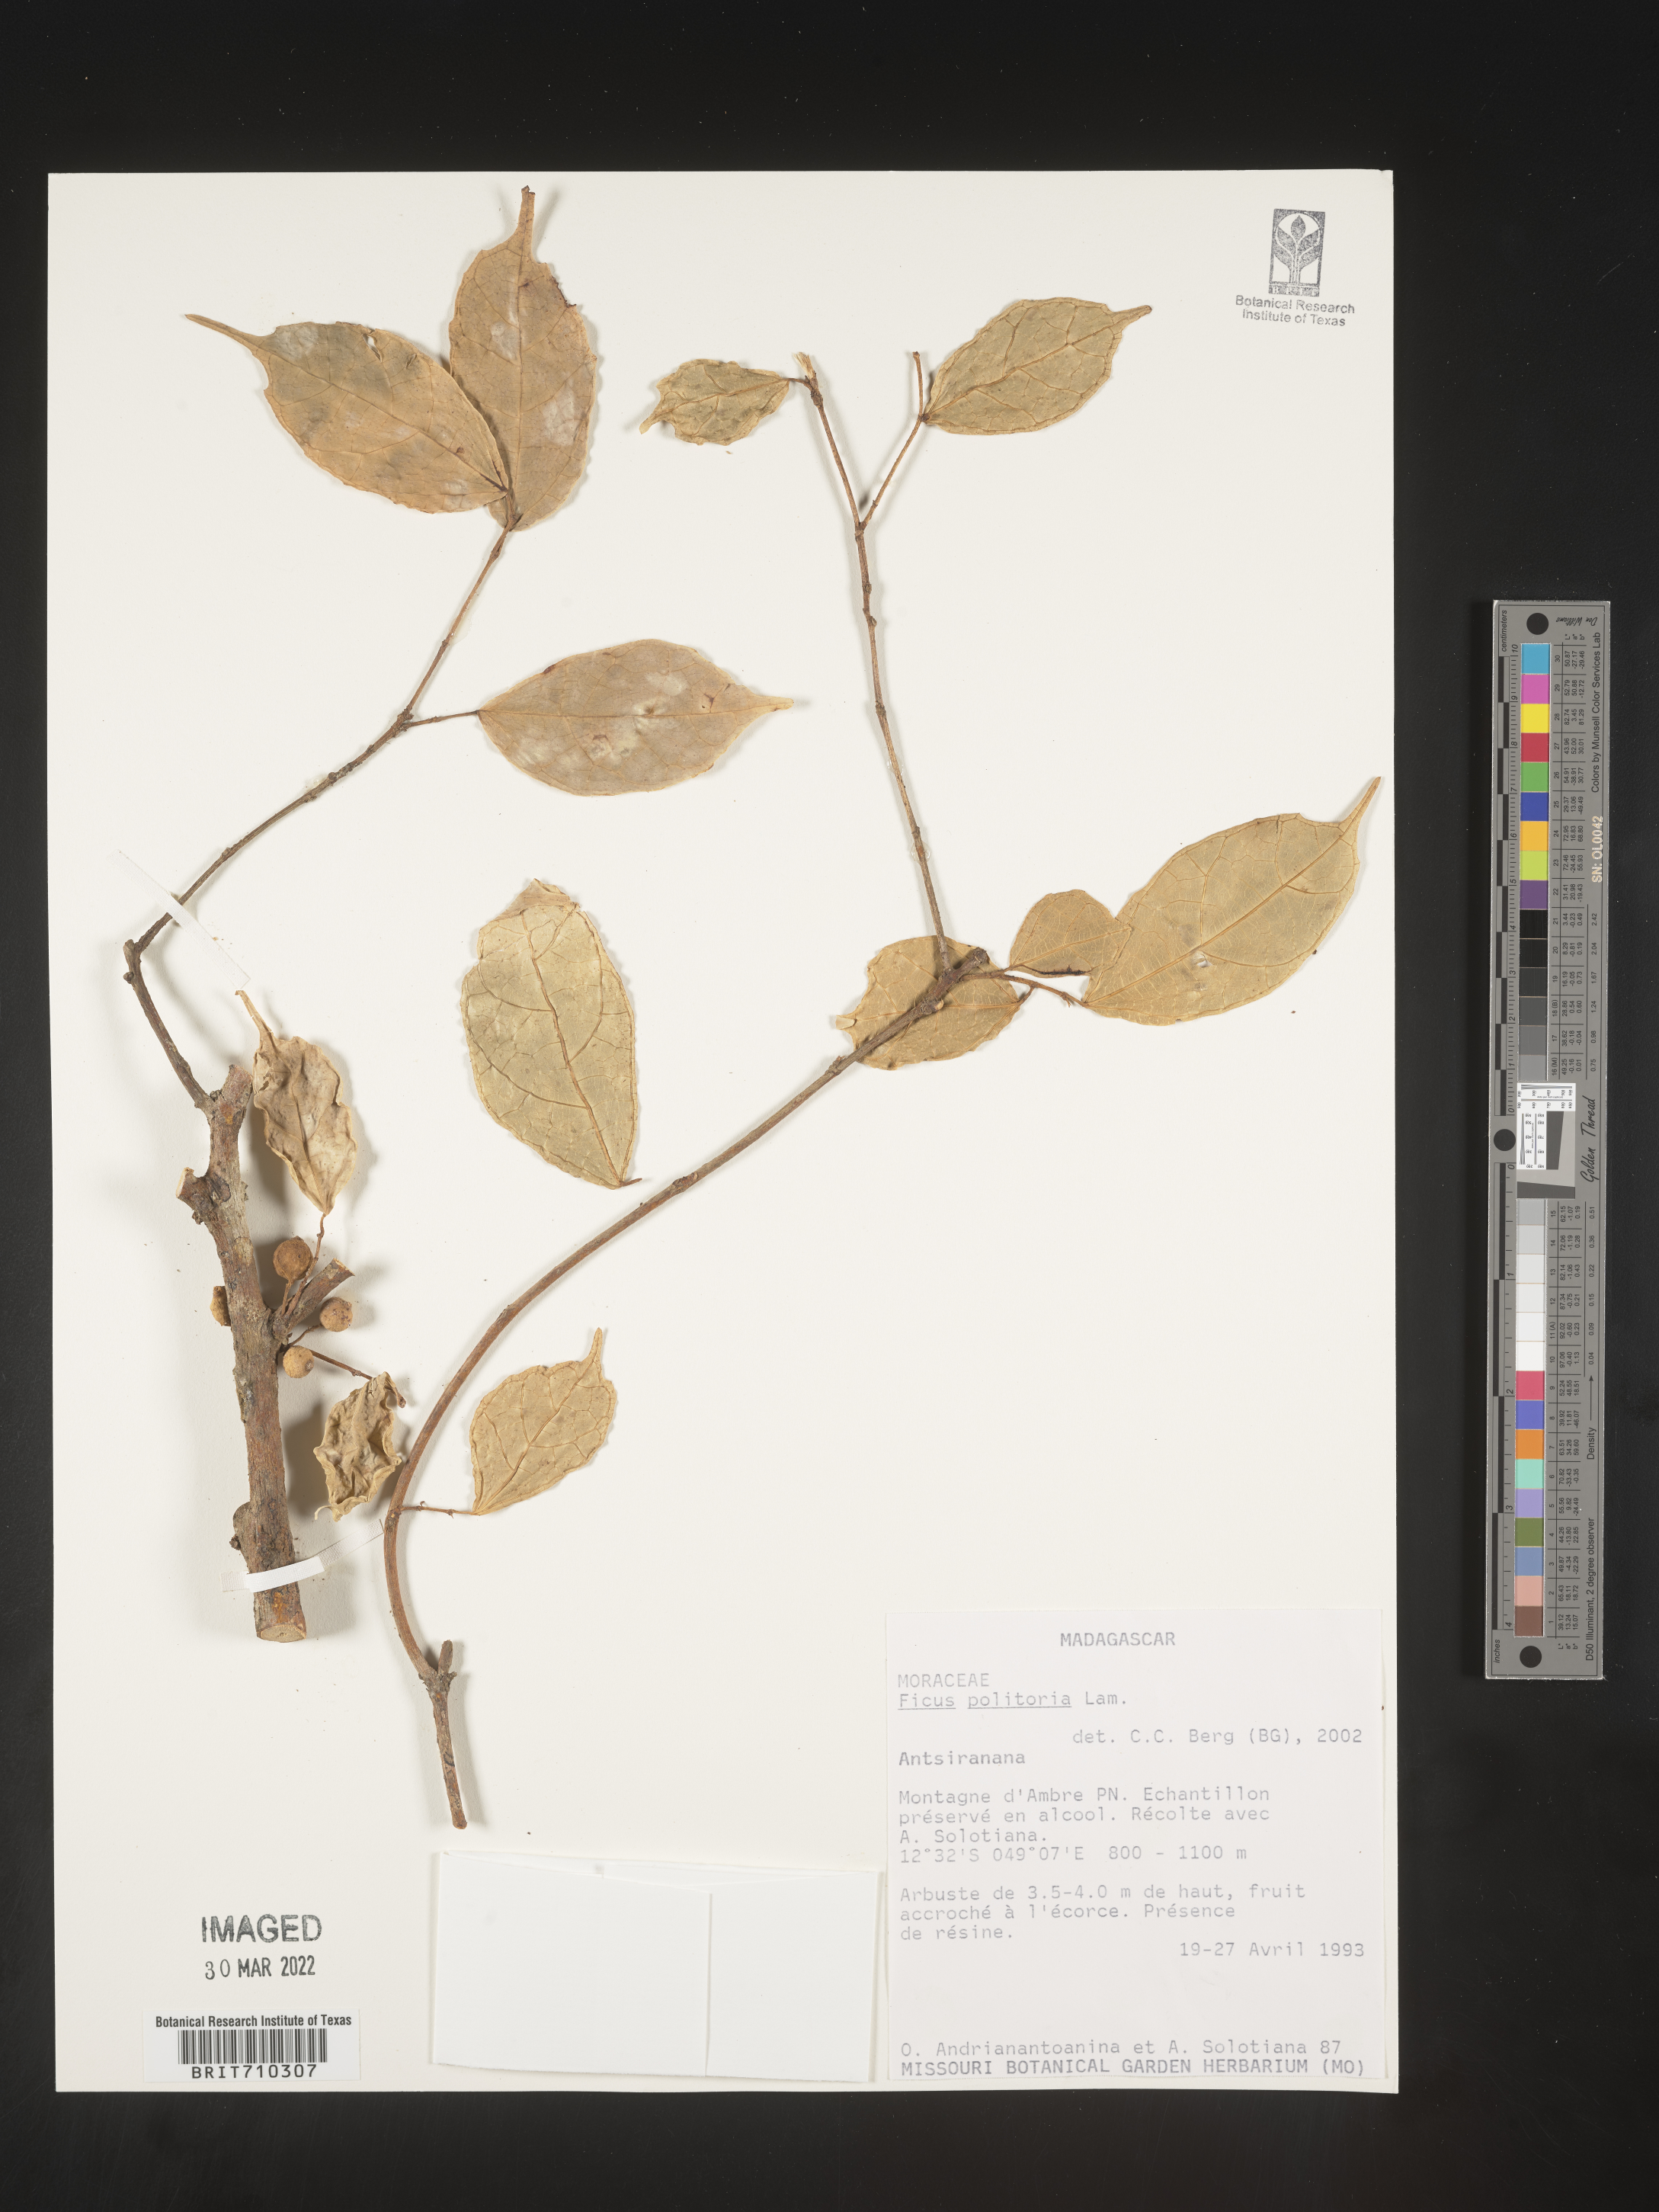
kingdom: Plantae
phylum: Tracheophyta
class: Magnoliopsida
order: Rosales
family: Moraceae
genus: Ficus
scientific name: Ficus
